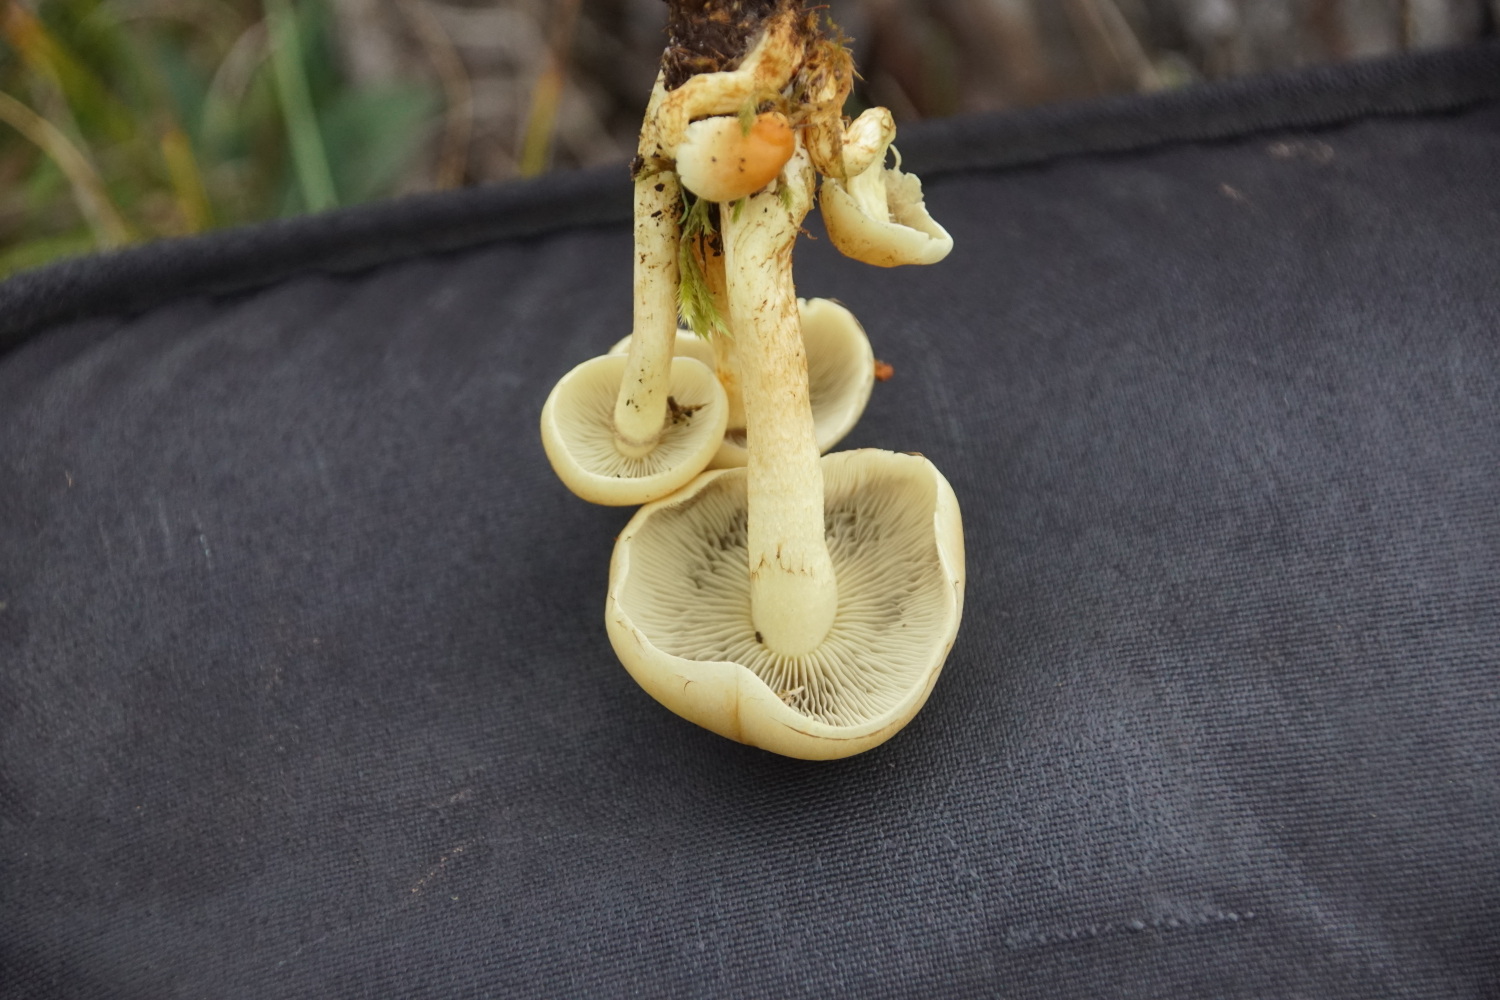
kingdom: Fungi
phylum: Basidiomycota
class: Agaricomycetes
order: Agaricales
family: Strophariaceae
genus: Hypholoma
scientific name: Hypholoma fasciculare
